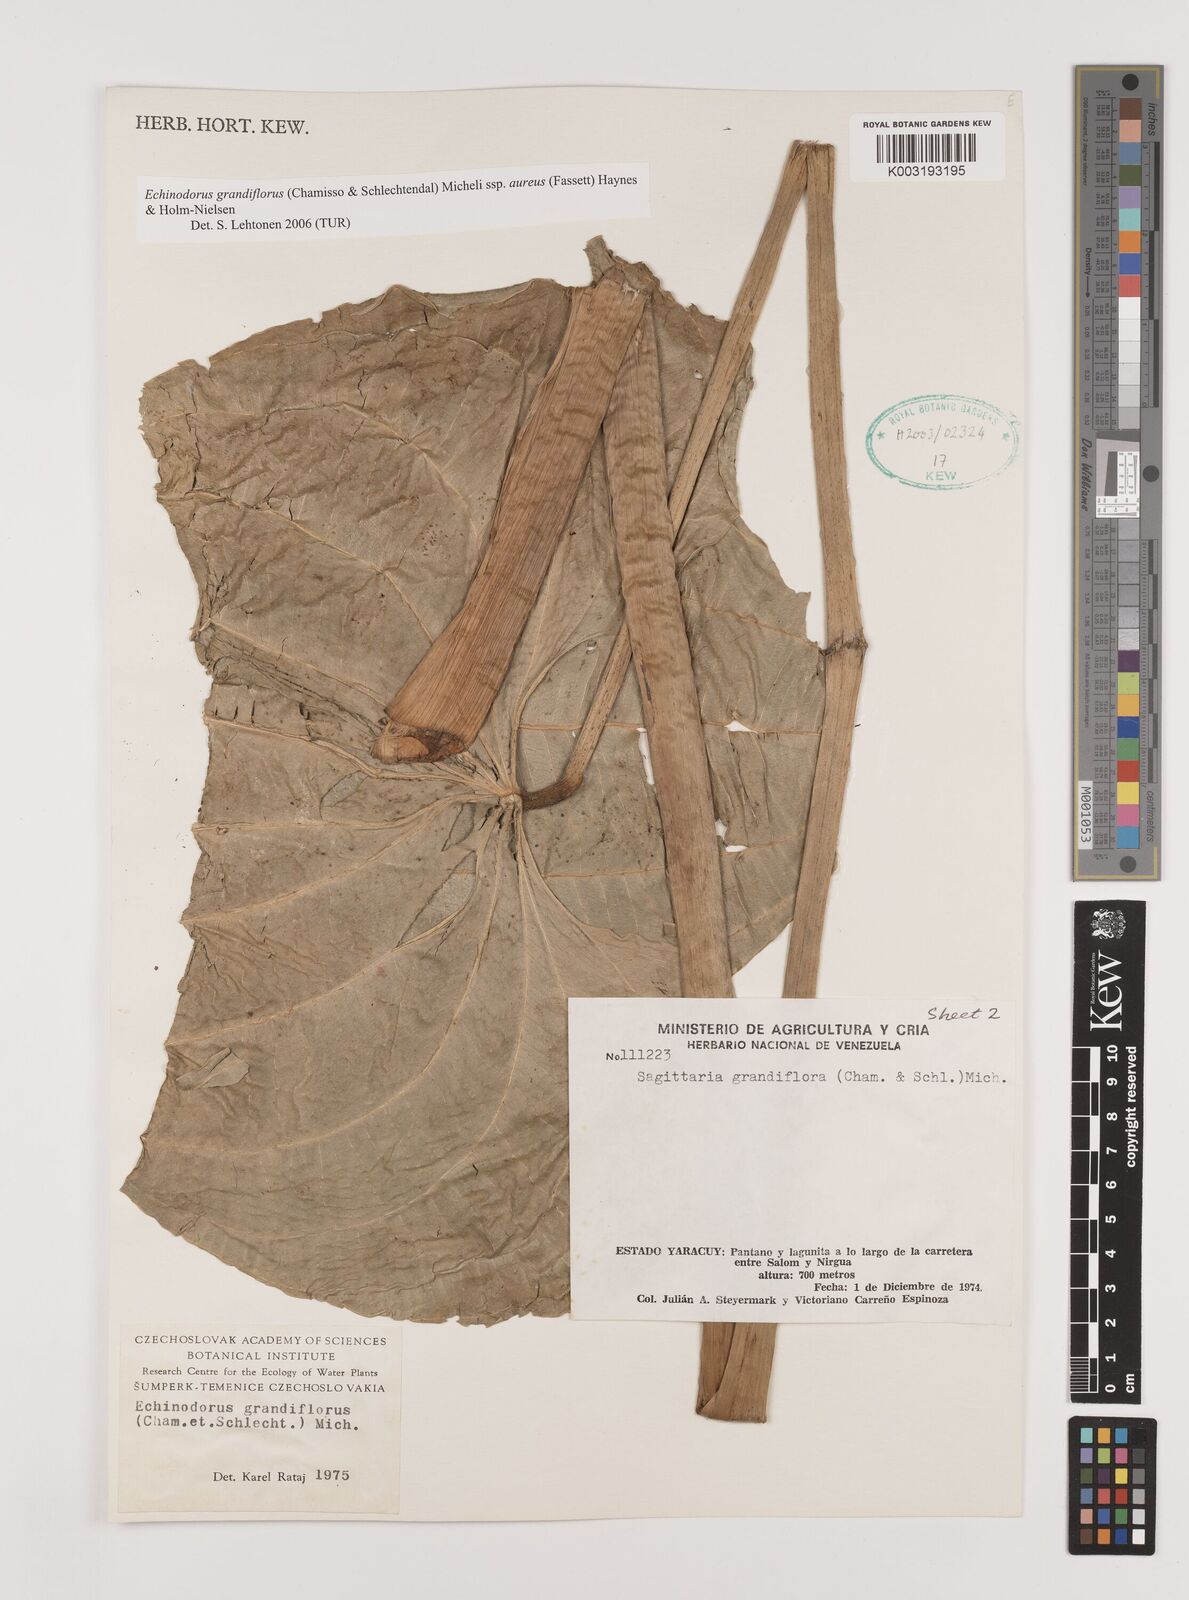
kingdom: Plantae
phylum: Tracheophyta
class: Liliopsida
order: Alismatales
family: Alismataceae
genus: Aquarius
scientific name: Aquarius floribundus
